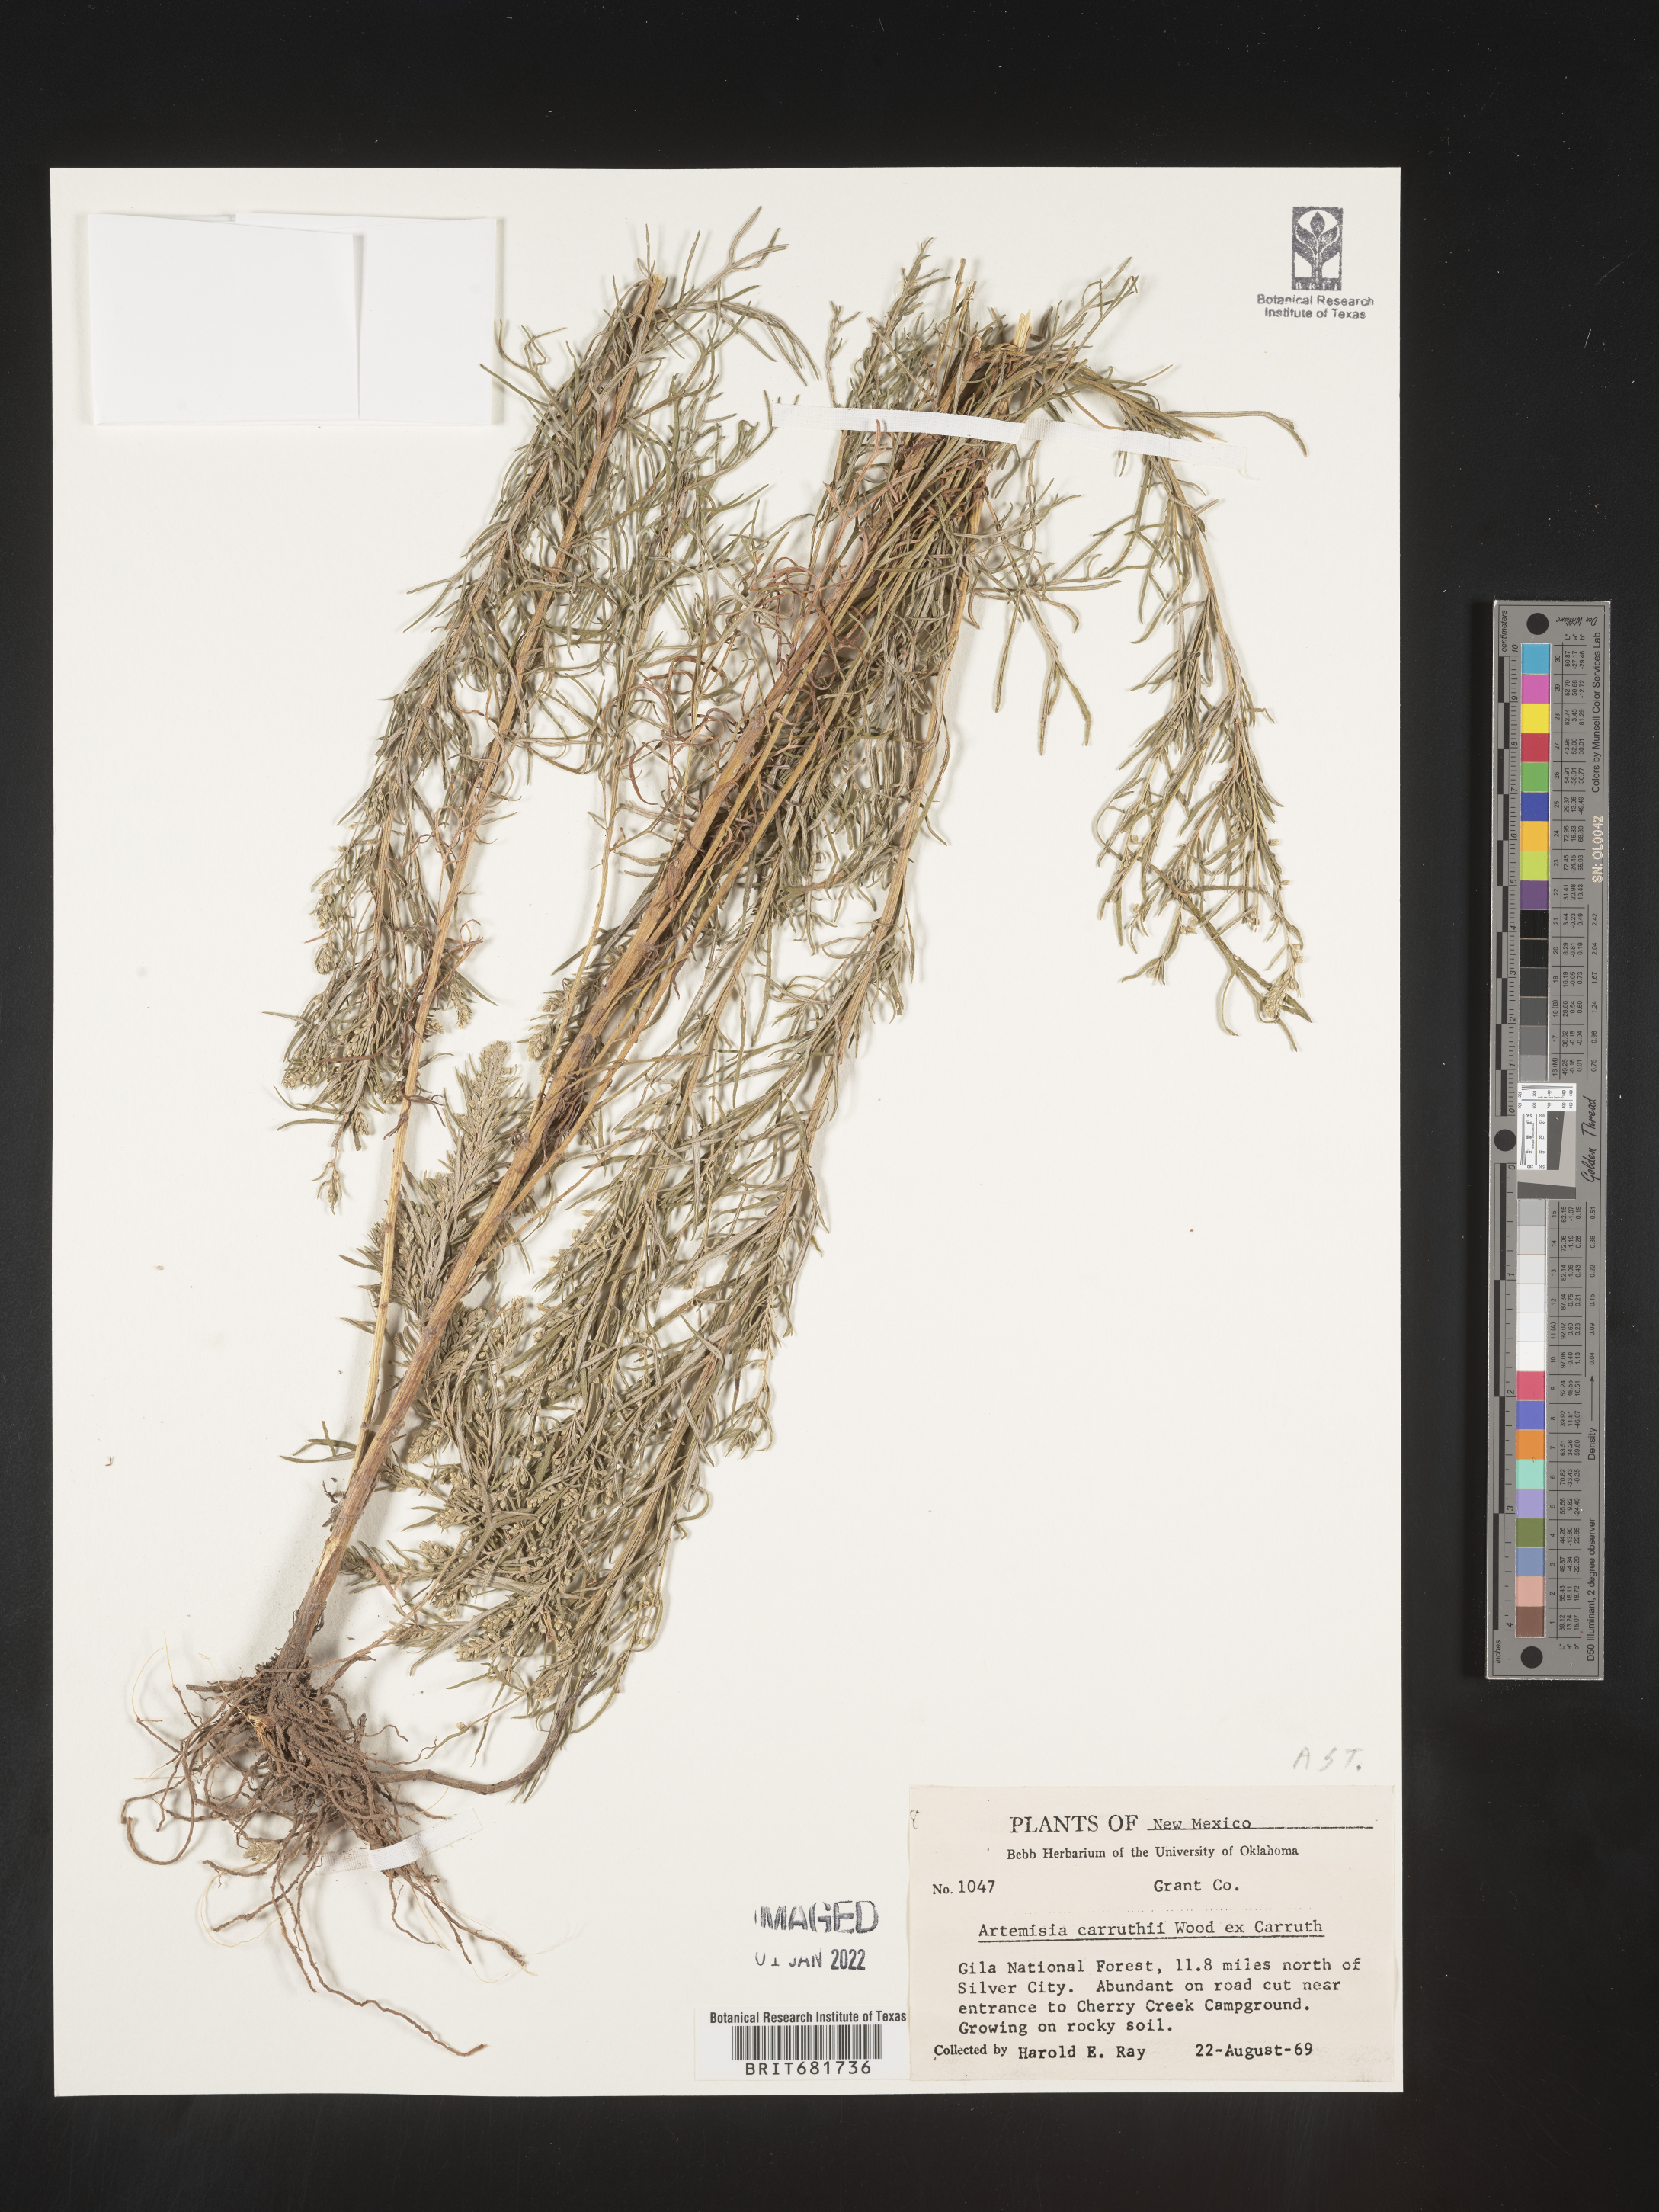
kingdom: Plantae
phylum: Tracheophyta
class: Magnoliopsida
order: Asterales
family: Asteraceae
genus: Artemisia
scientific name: Artemisia carruthii
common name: Carruth wormwood
